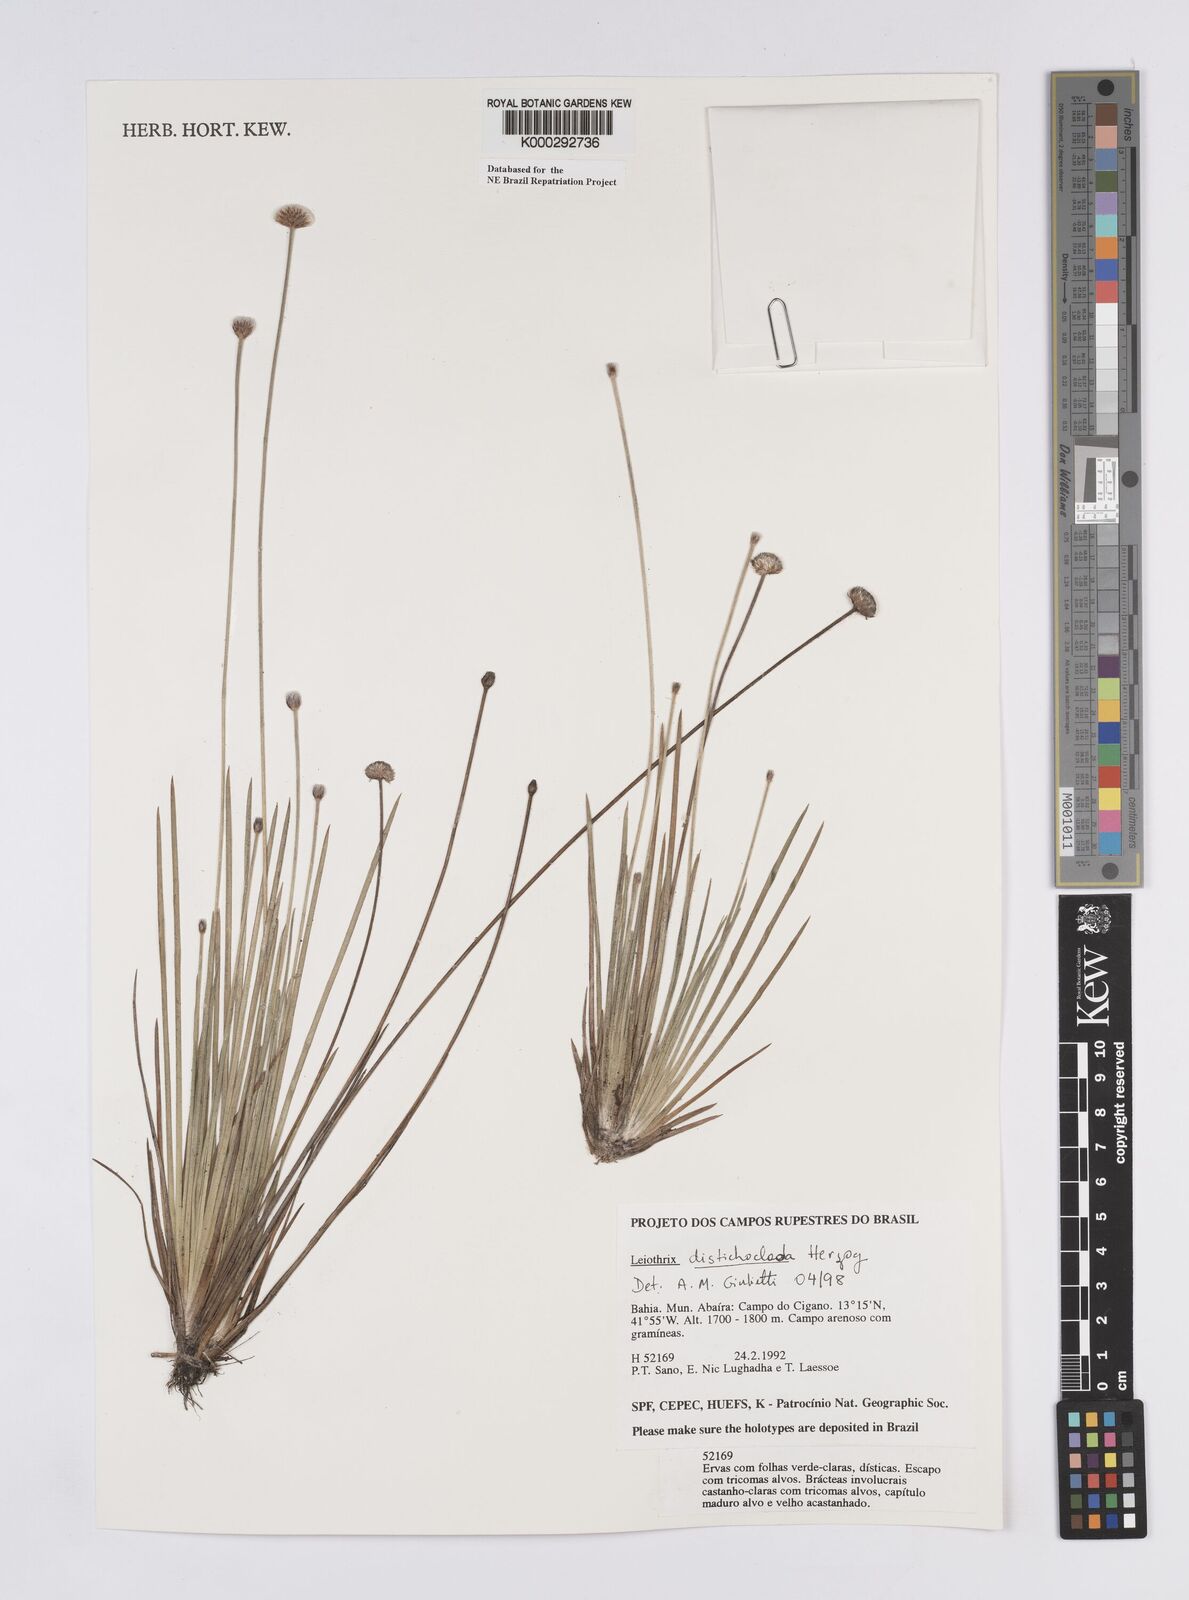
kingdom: Plantae
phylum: Tracheophyta
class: Liliopsida
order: Poales
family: Eriocaulaceae
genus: Leiothrix
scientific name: Leiothrix distichoclada
